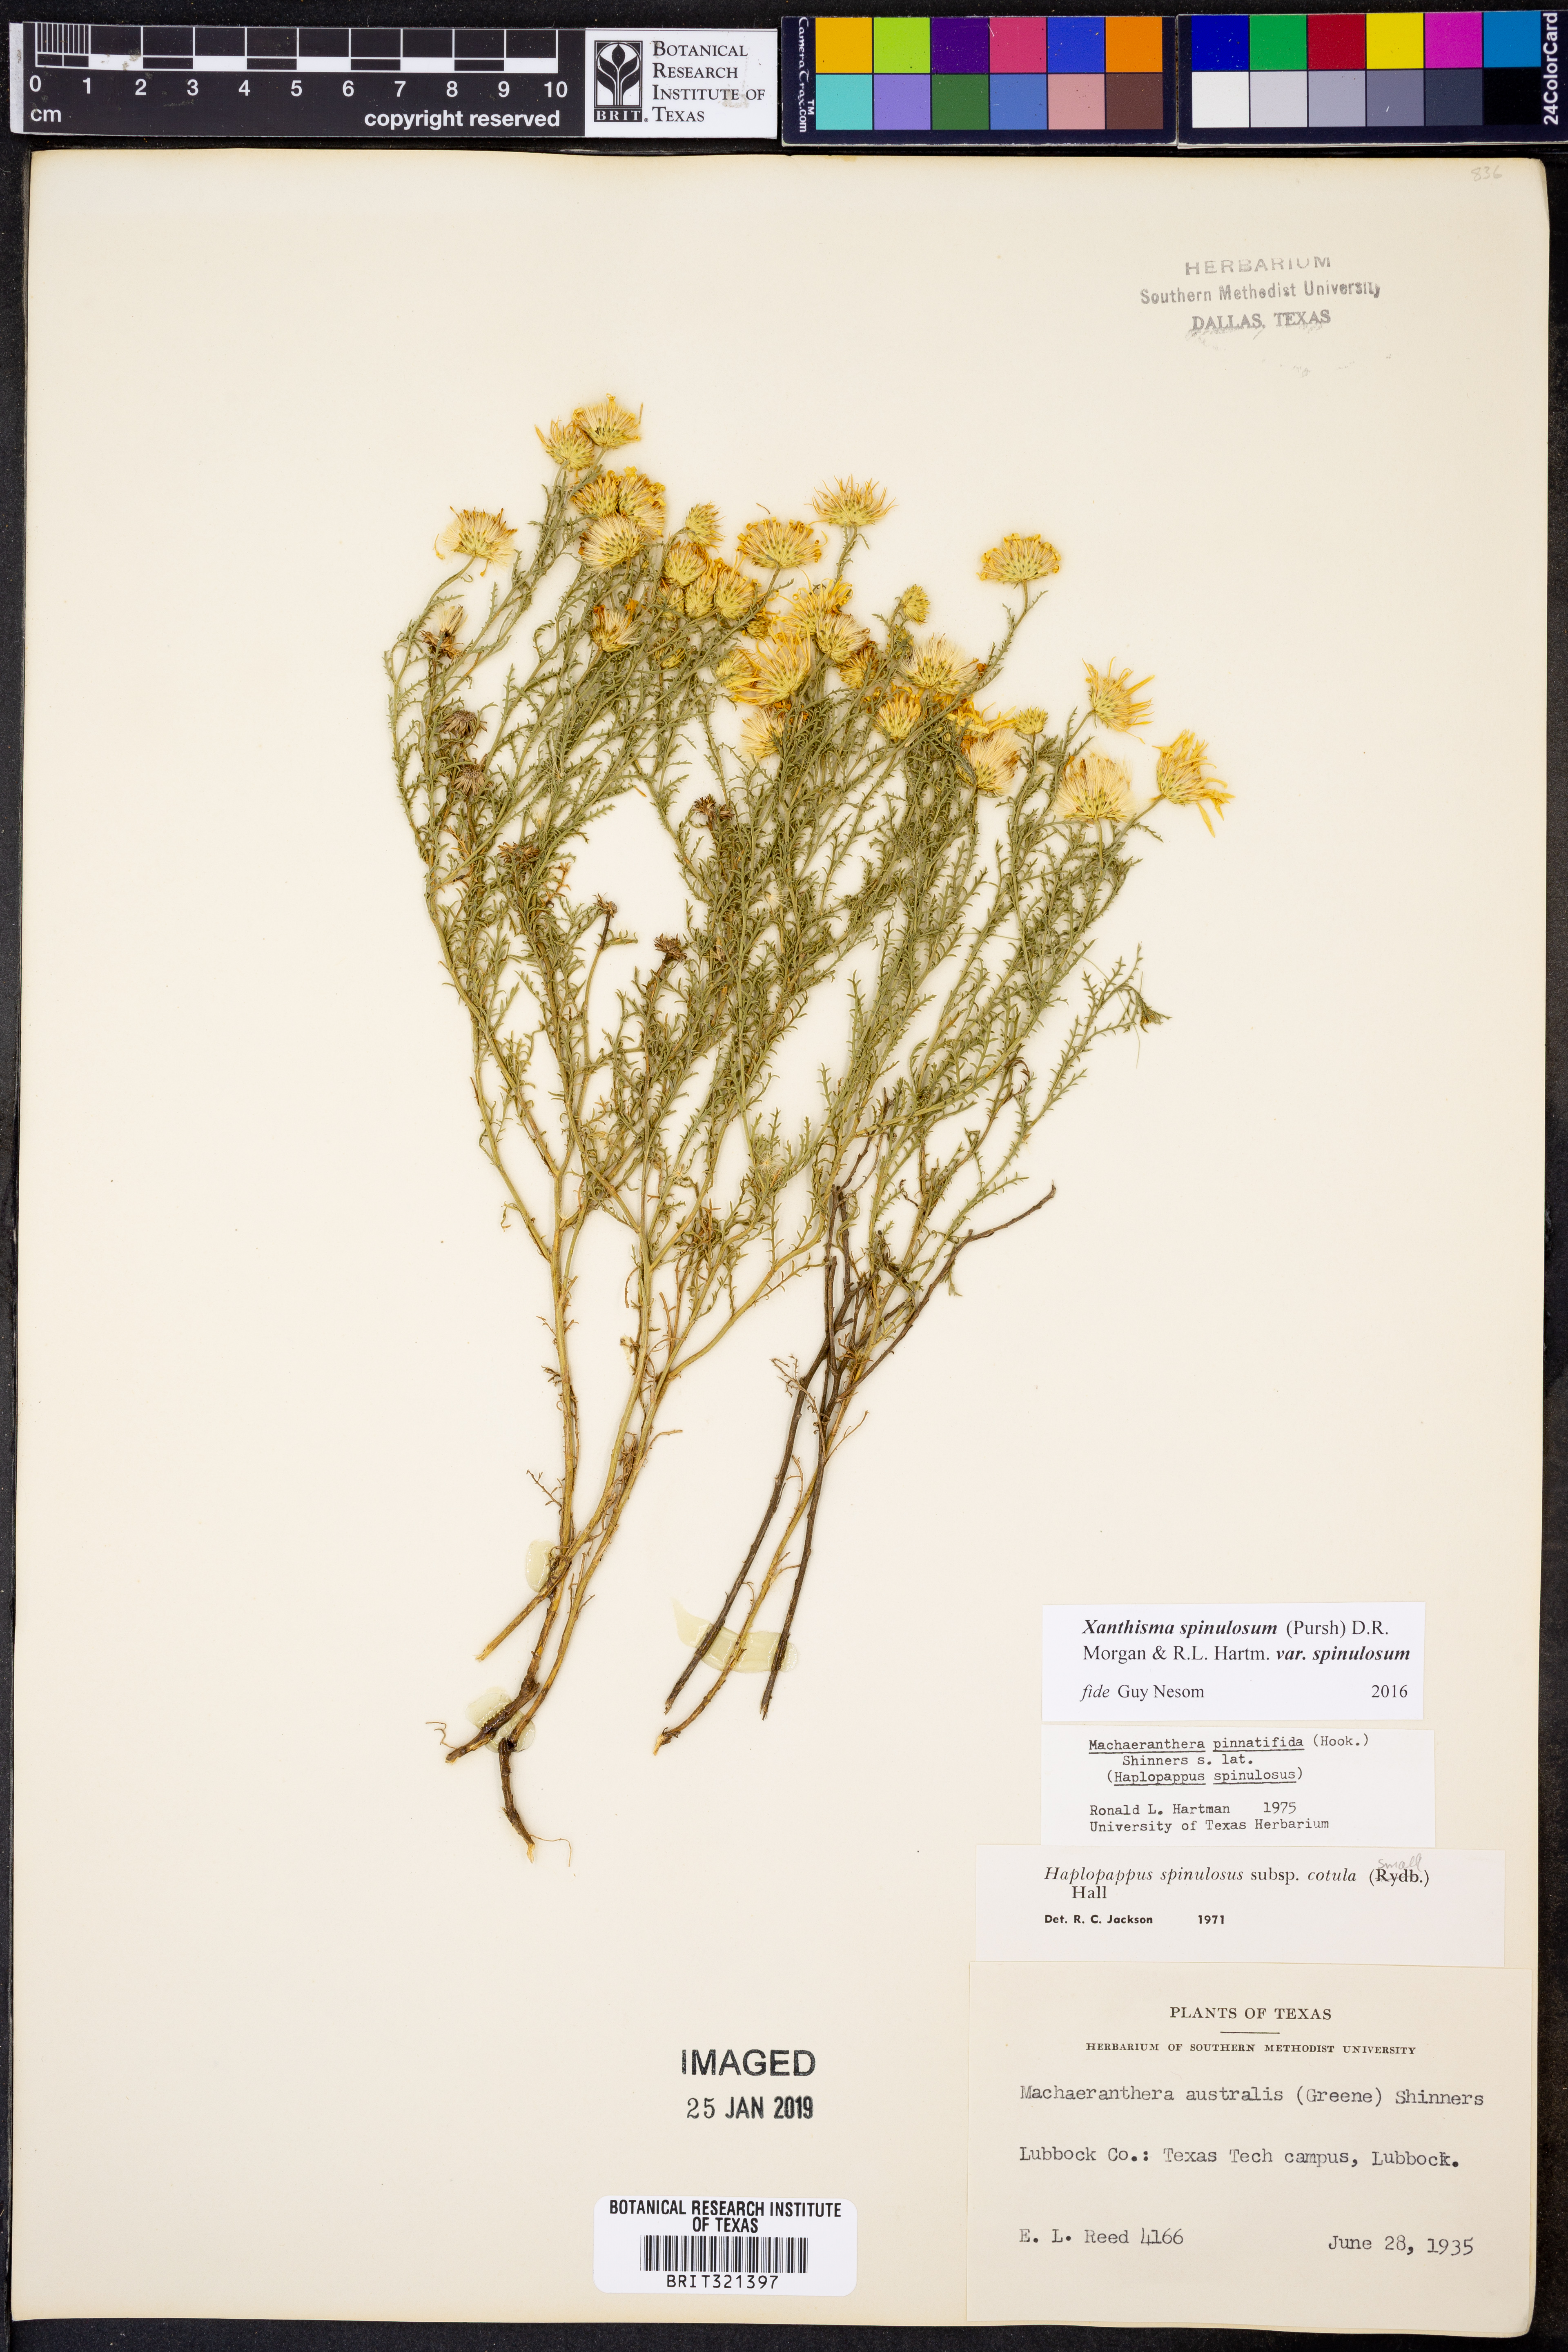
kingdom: Plantae
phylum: Tracheophyta
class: Magnoliopsida
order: Asterales
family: Asteraceae
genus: Xanthisma
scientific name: Xanthisma spinulosum
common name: Spiny goldenweed
